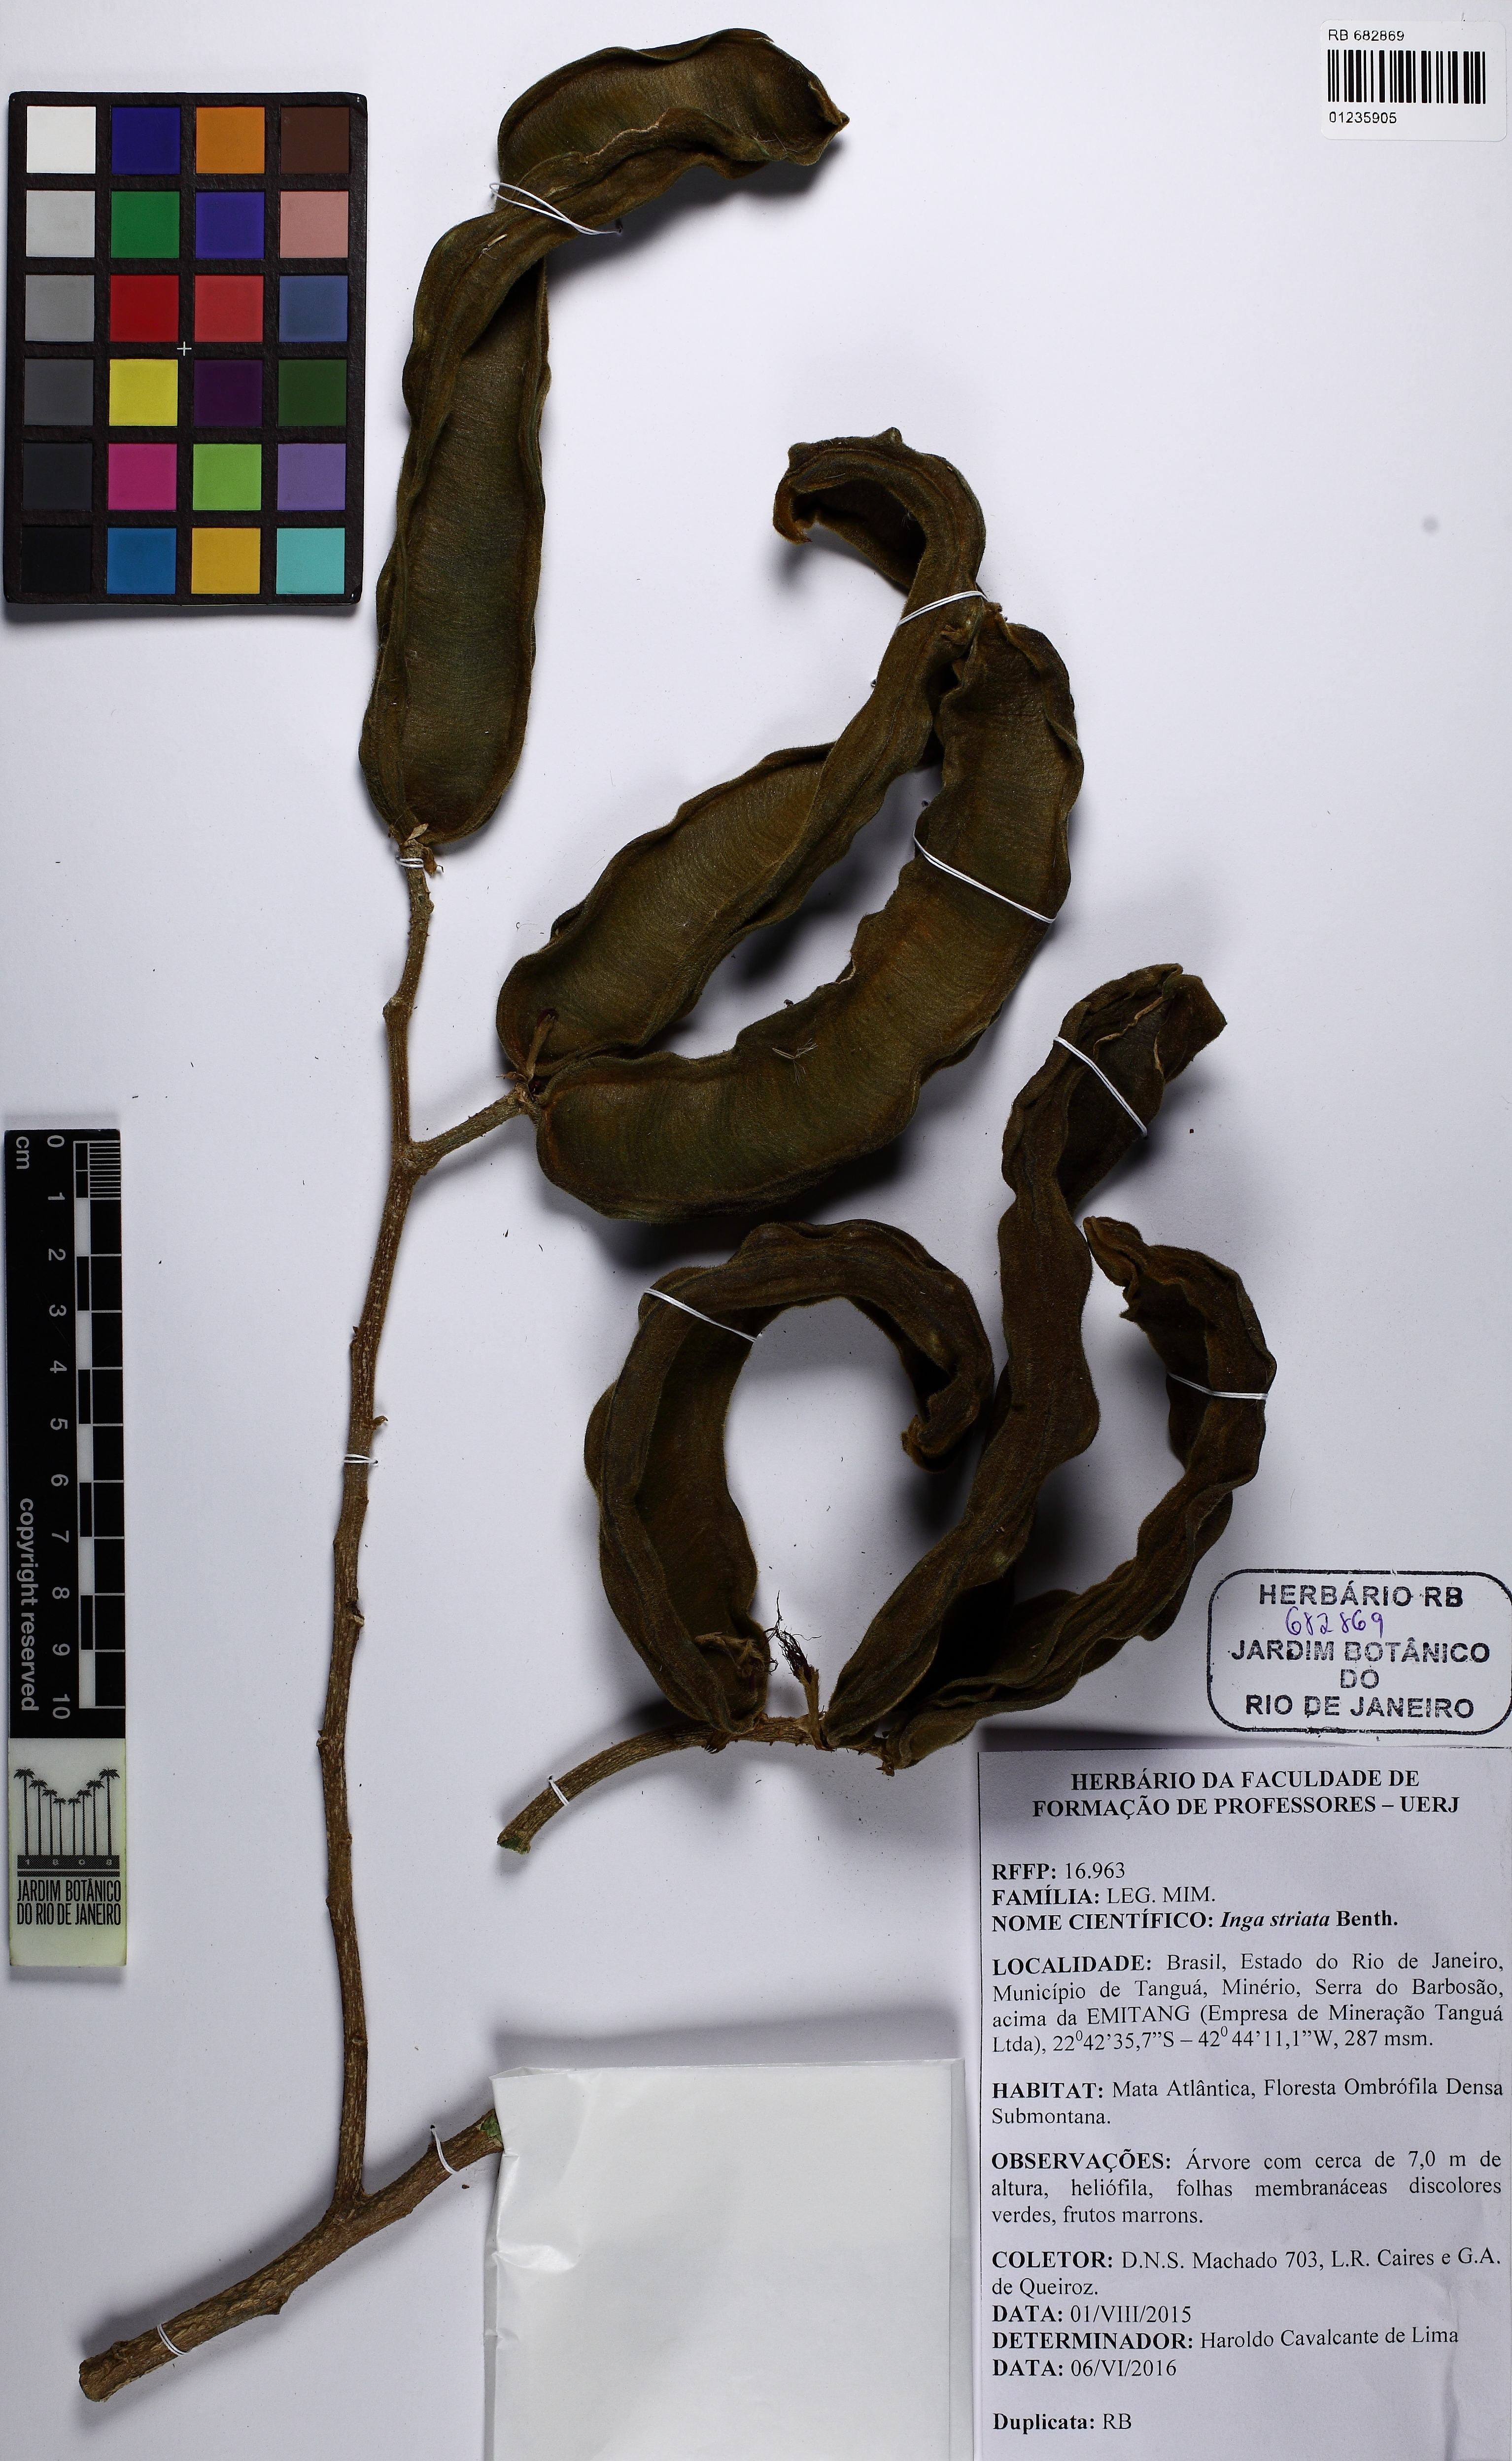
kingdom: Plantae
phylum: Tracheophyta
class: Magnoliopsida
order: Fabales
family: Fabaceae
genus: Inga
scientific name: Inga striata
